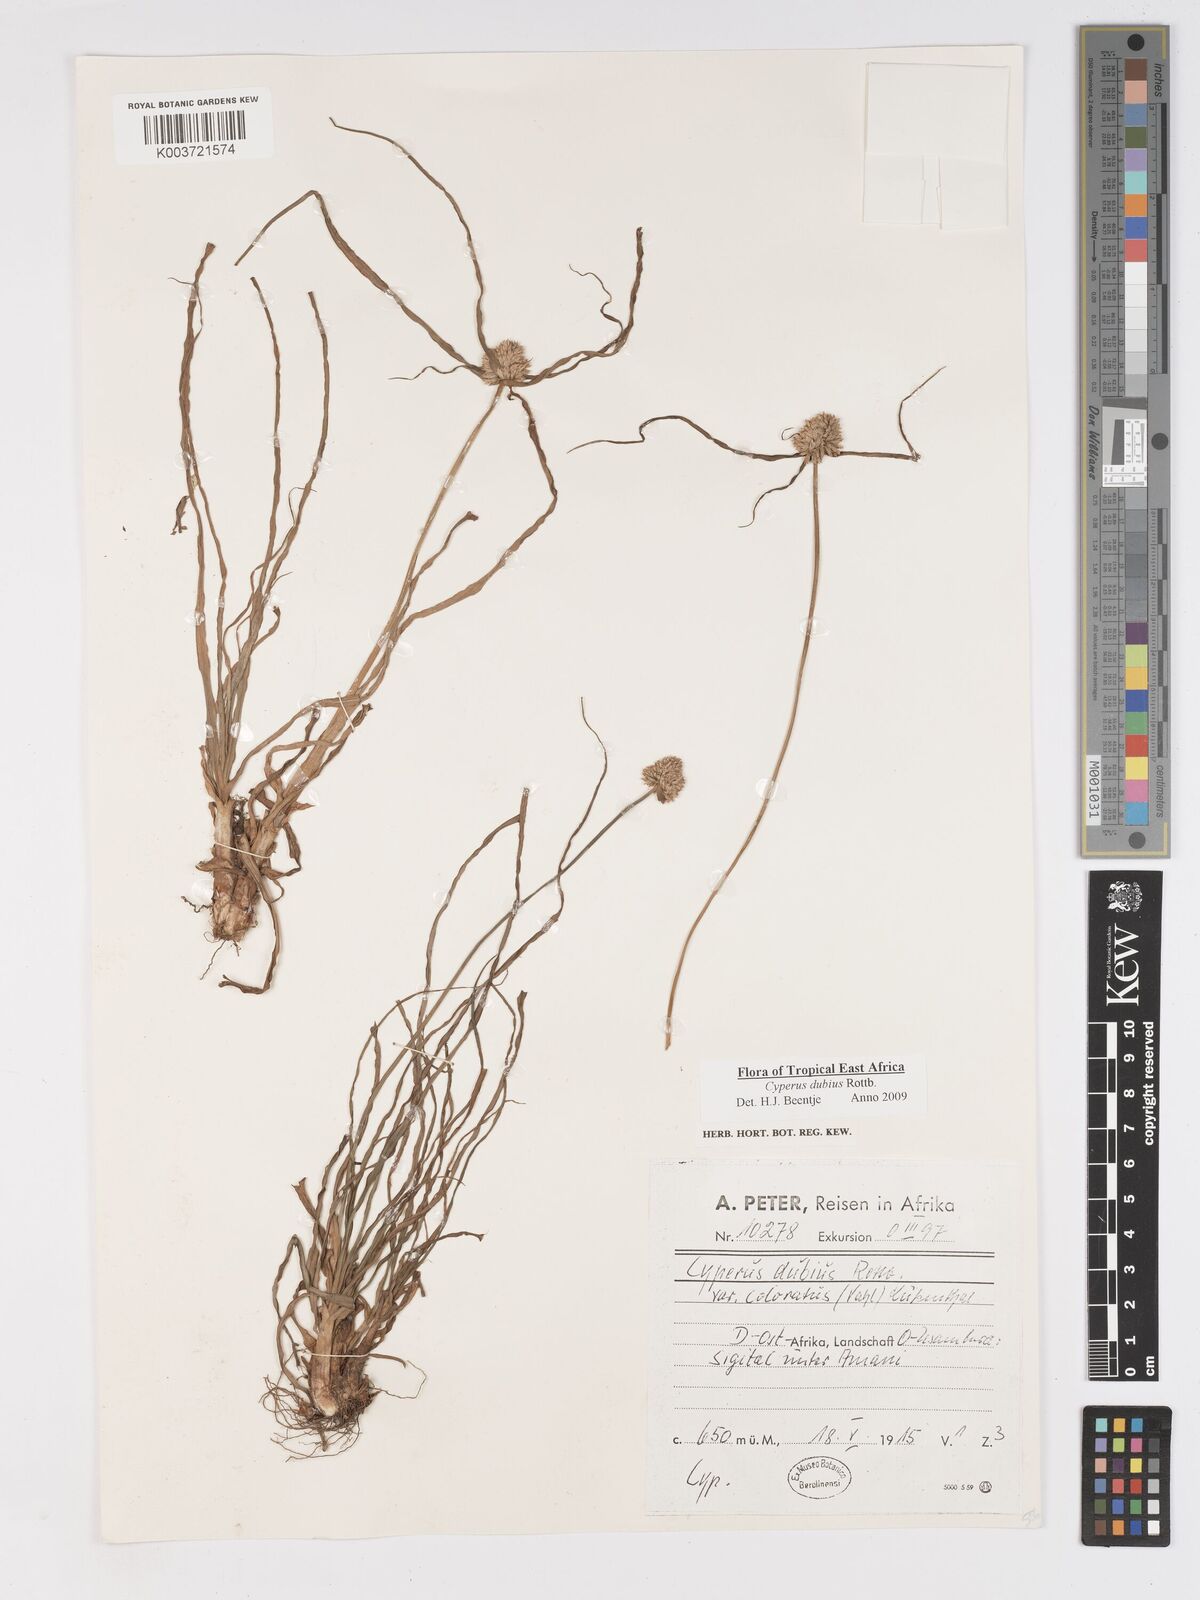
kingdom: Plantae
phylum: Tracheophyta
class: Liliopsida
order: Poales
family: Cyperaceae
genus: Cyperus
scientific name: Cyperus dubius
